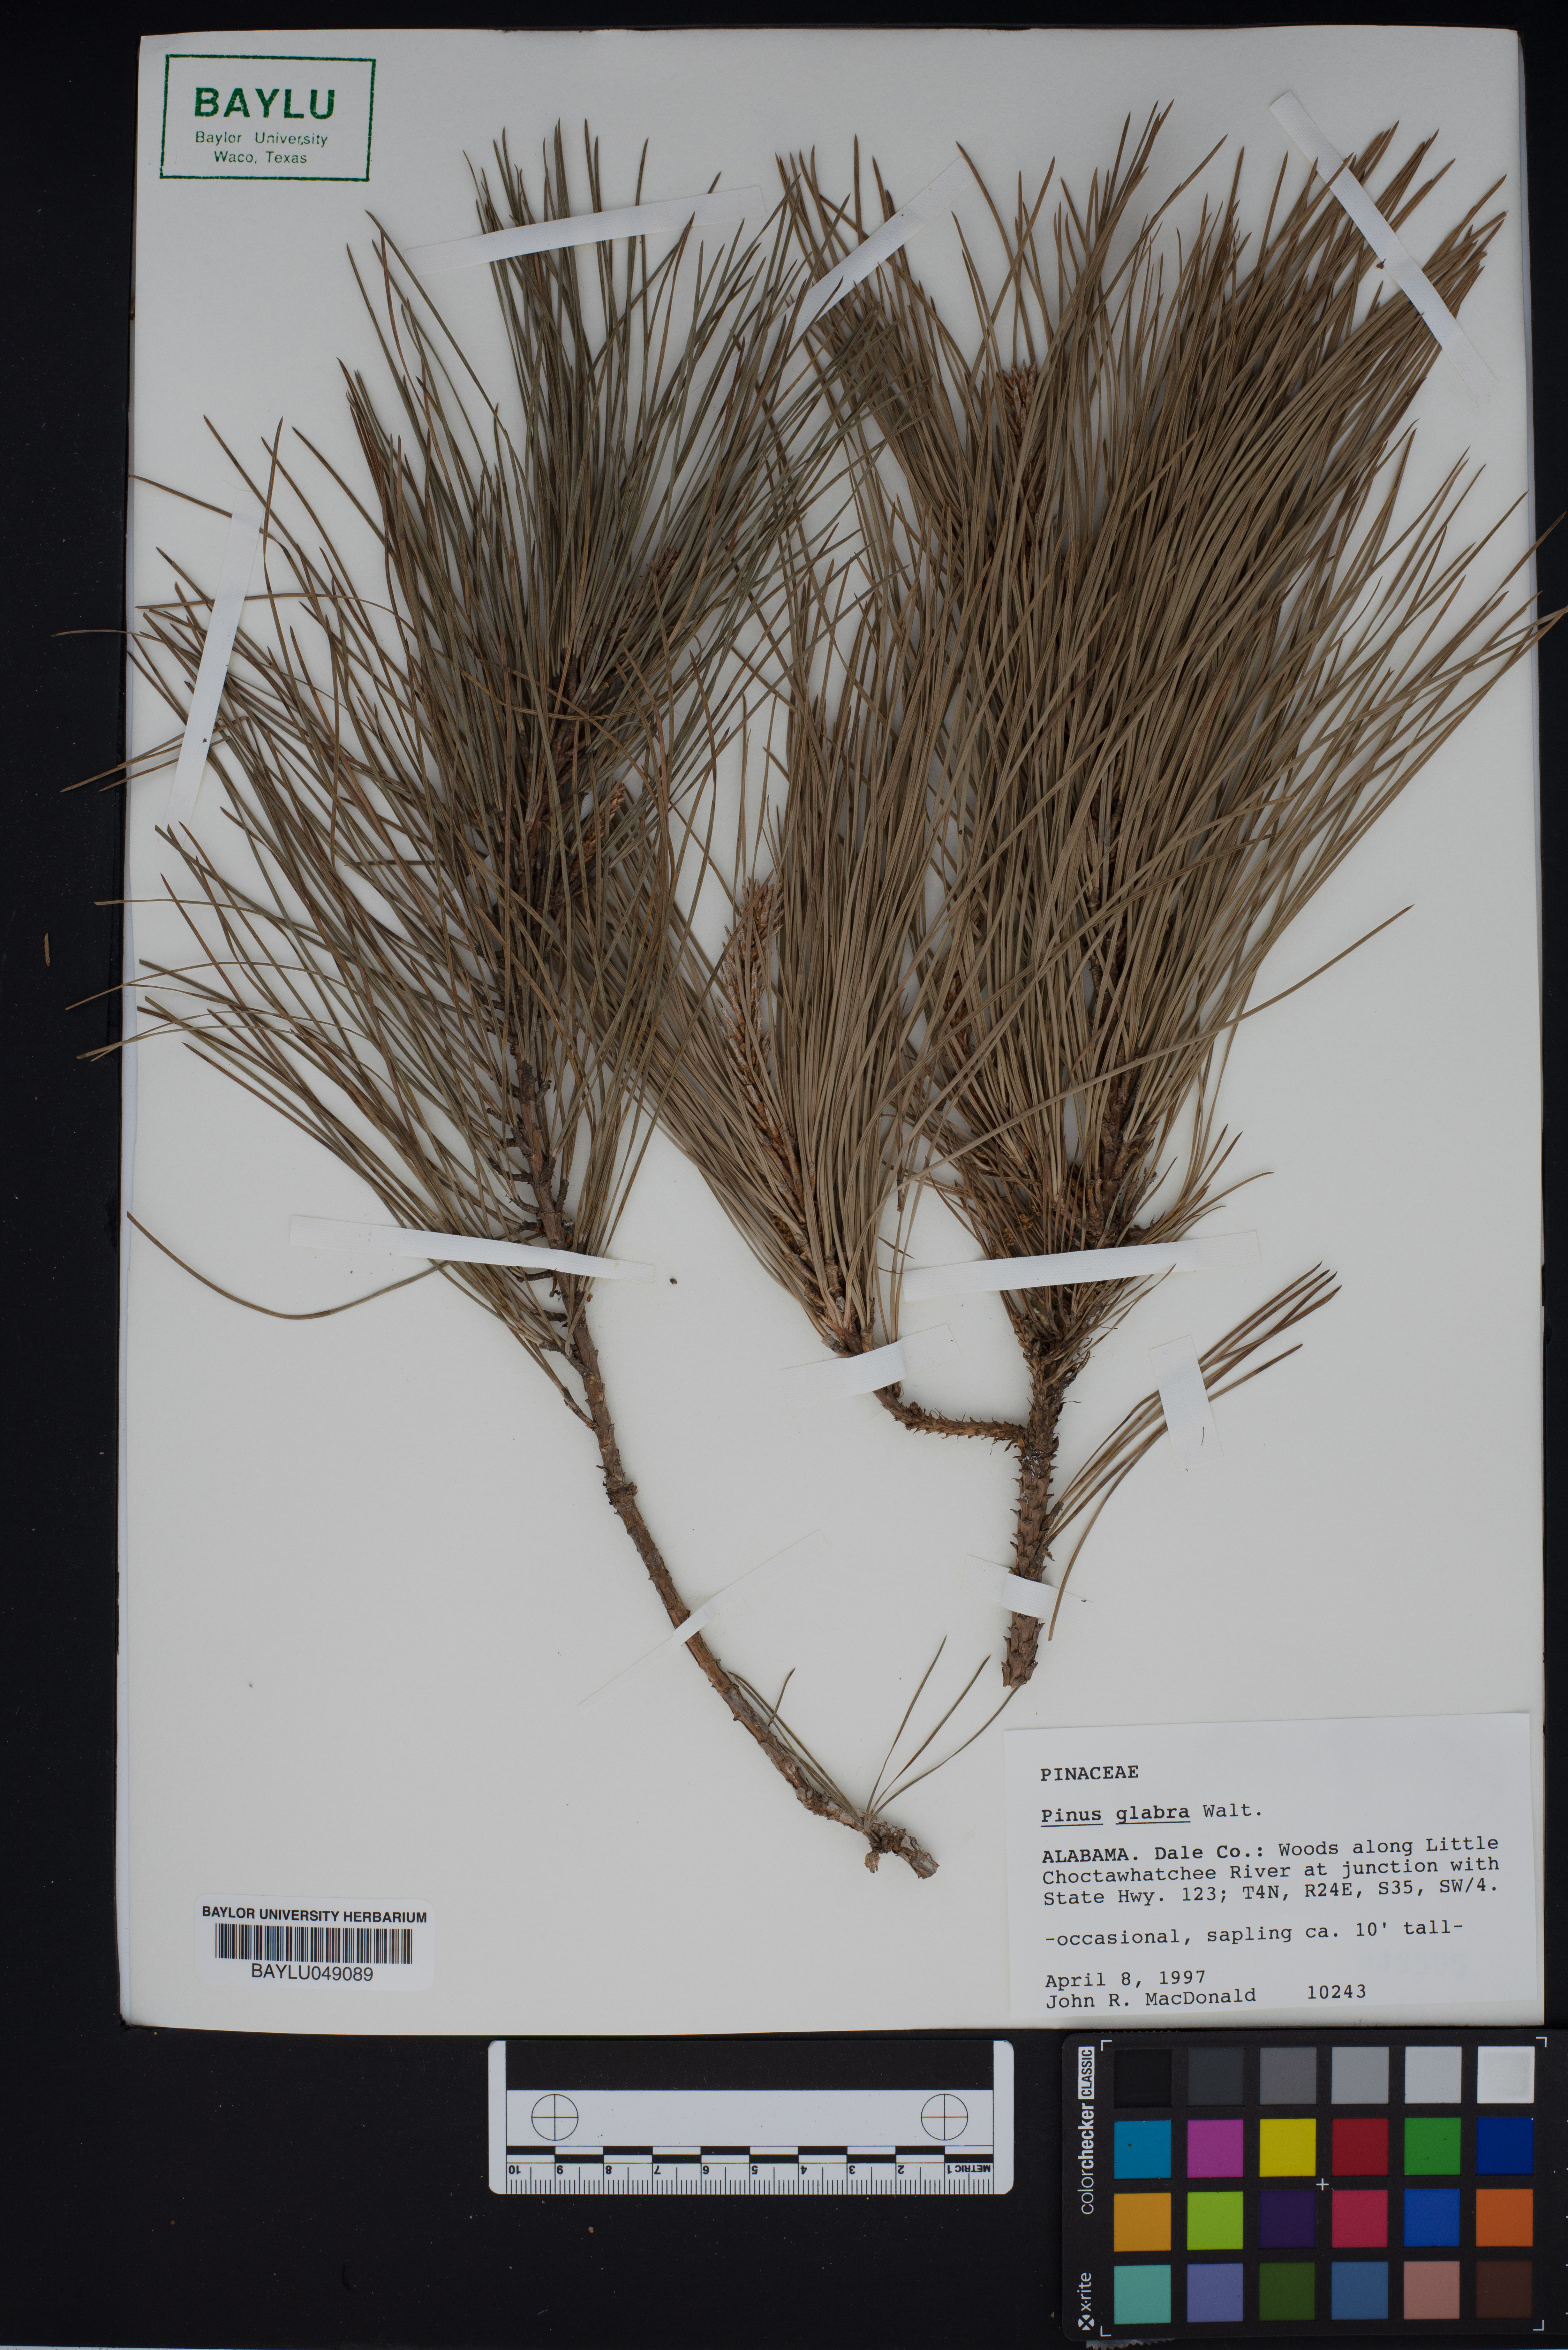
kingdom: Plantae
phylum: Tracheophyta
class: Pinopsida
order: Pinales
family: Pinaceae
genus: Pinus
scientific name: Pinus glabra
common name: Spruce pine
